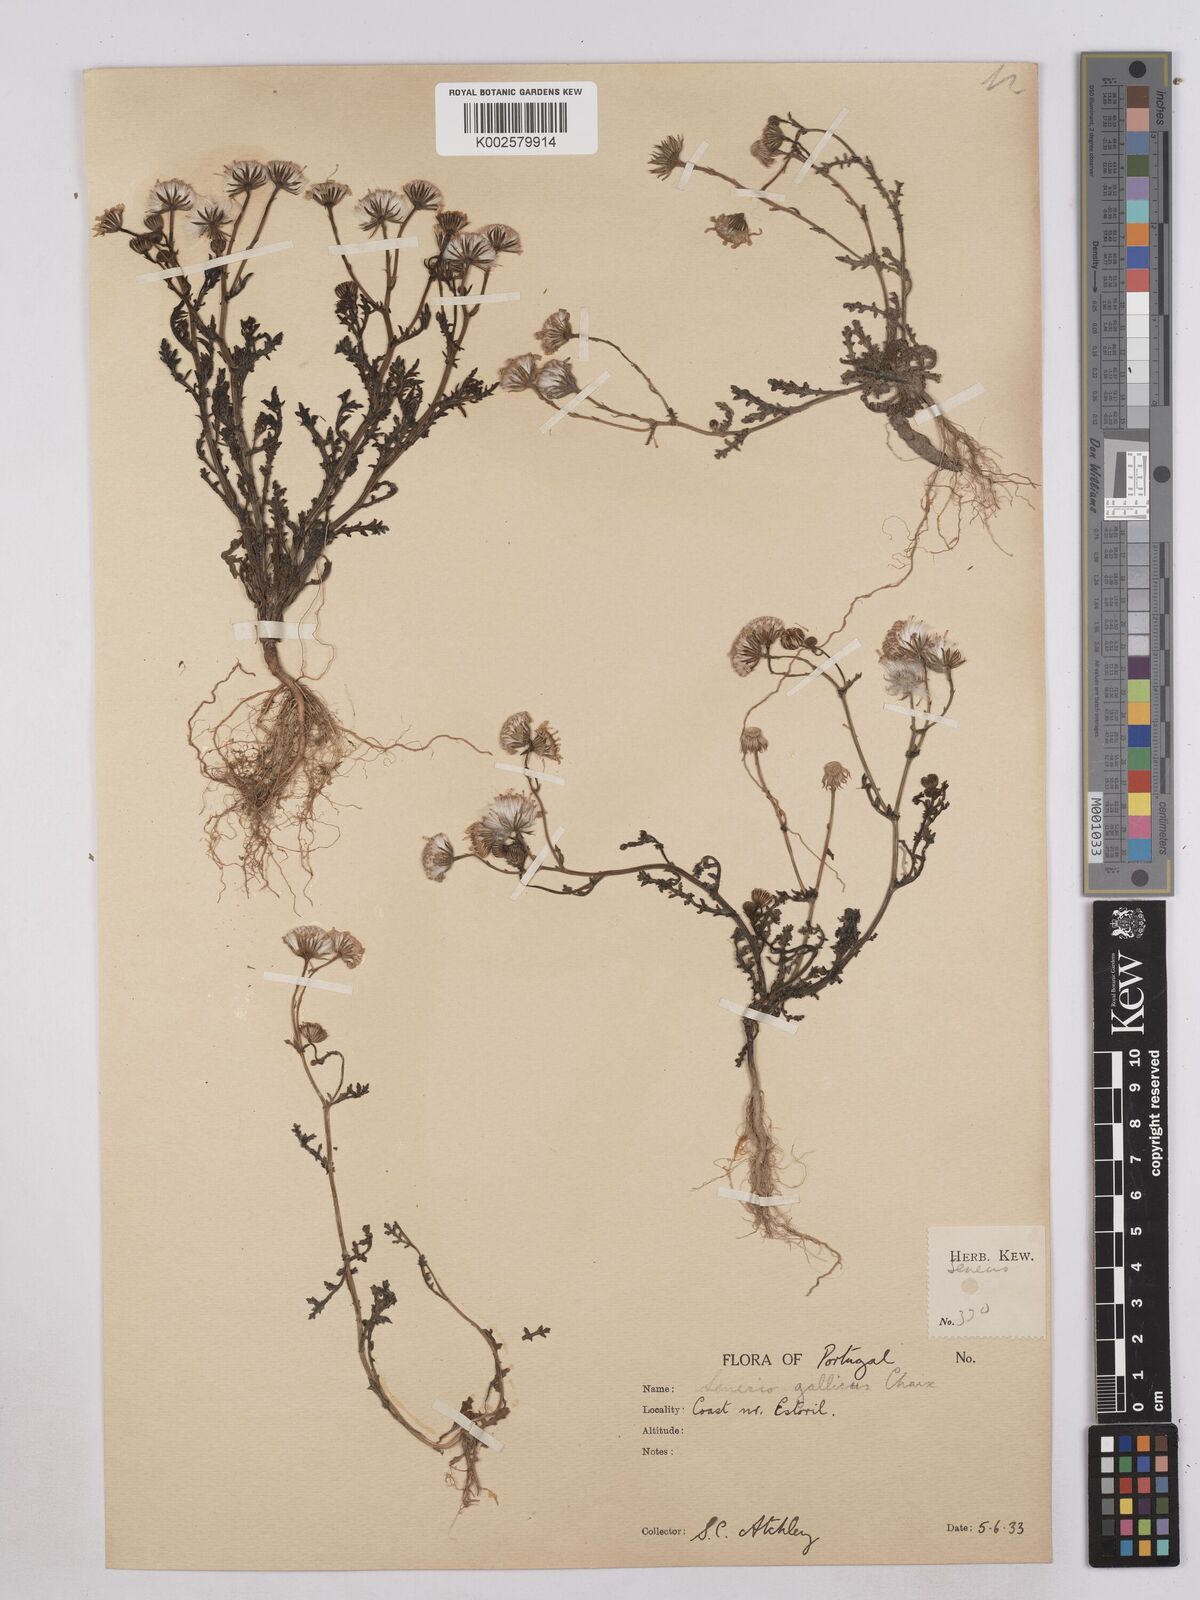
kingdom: Plantae
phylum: Tracheophyta
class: Magnoliopsida
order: Asterales
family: Asteraceae
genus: Senecio
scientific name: Senecio gallicus
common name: French groundsel
